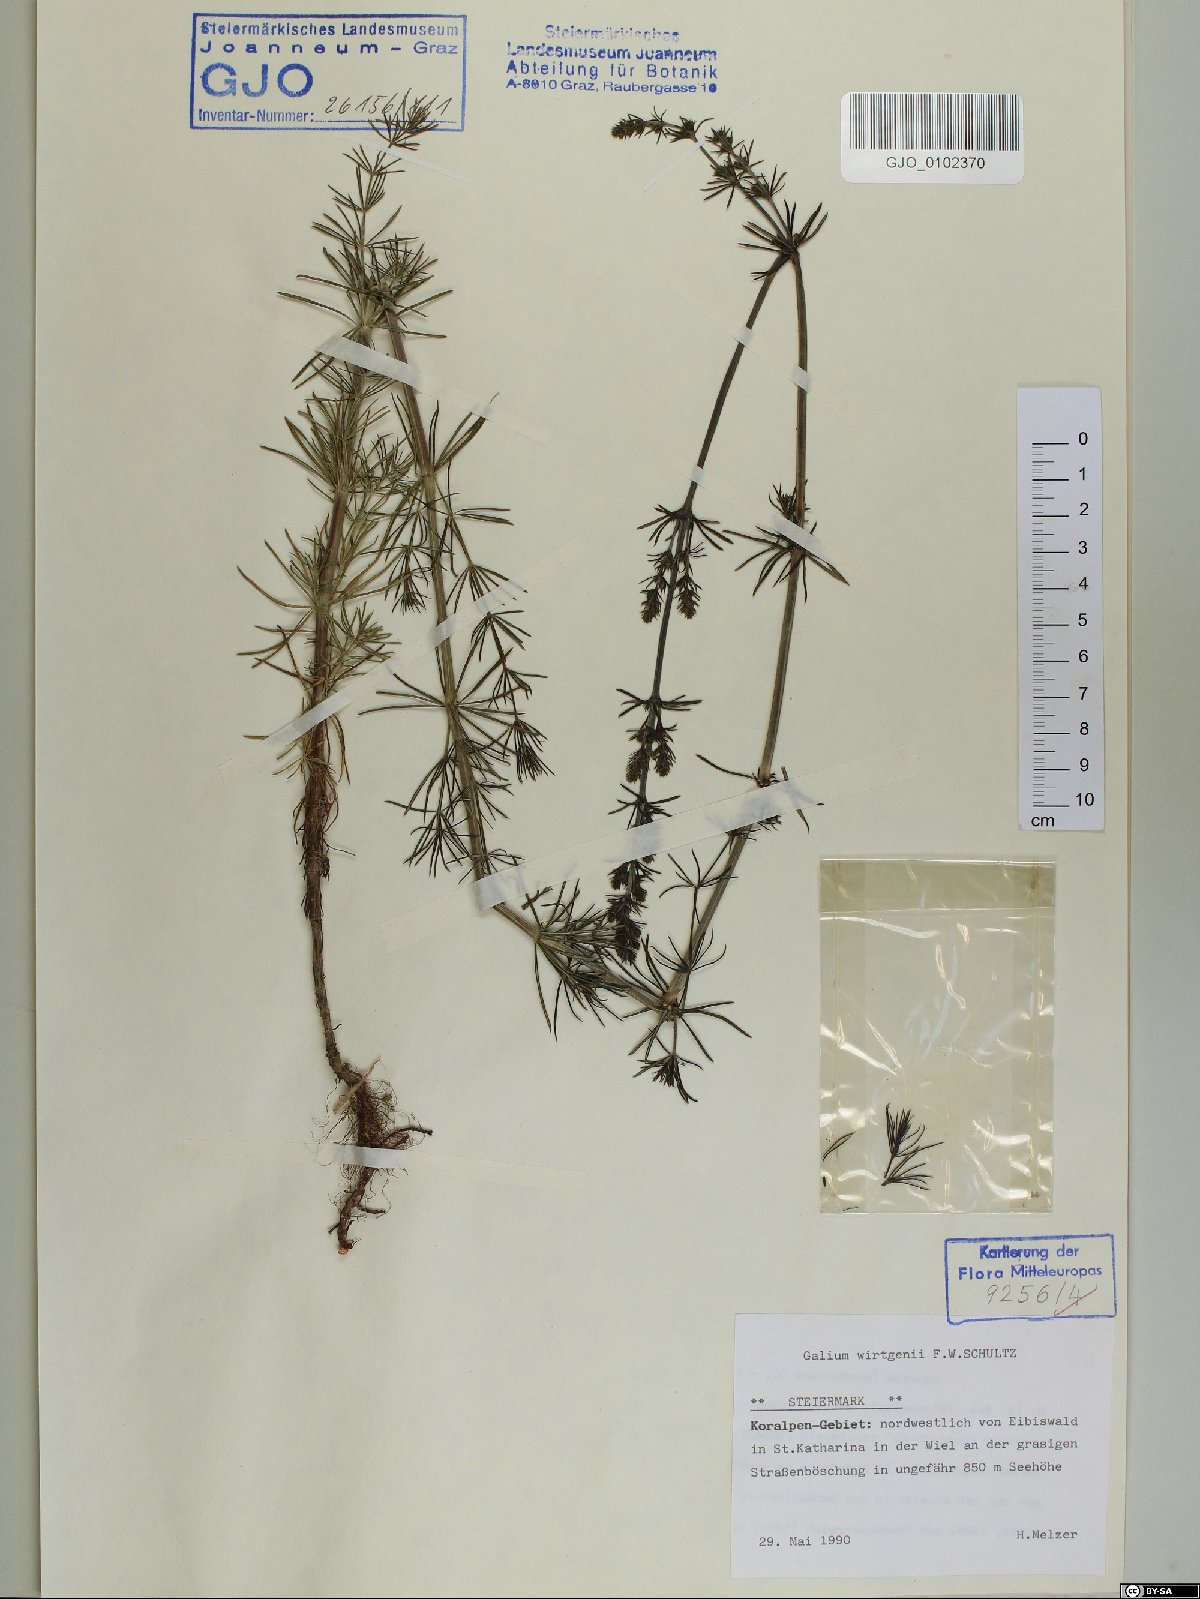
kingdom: Plantae
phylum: Tracheophyta
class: Magnoliopsida
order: Gentianales
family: Rubiaceae
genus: Galium
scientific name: Galium verum
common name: Lady's bedstraw
